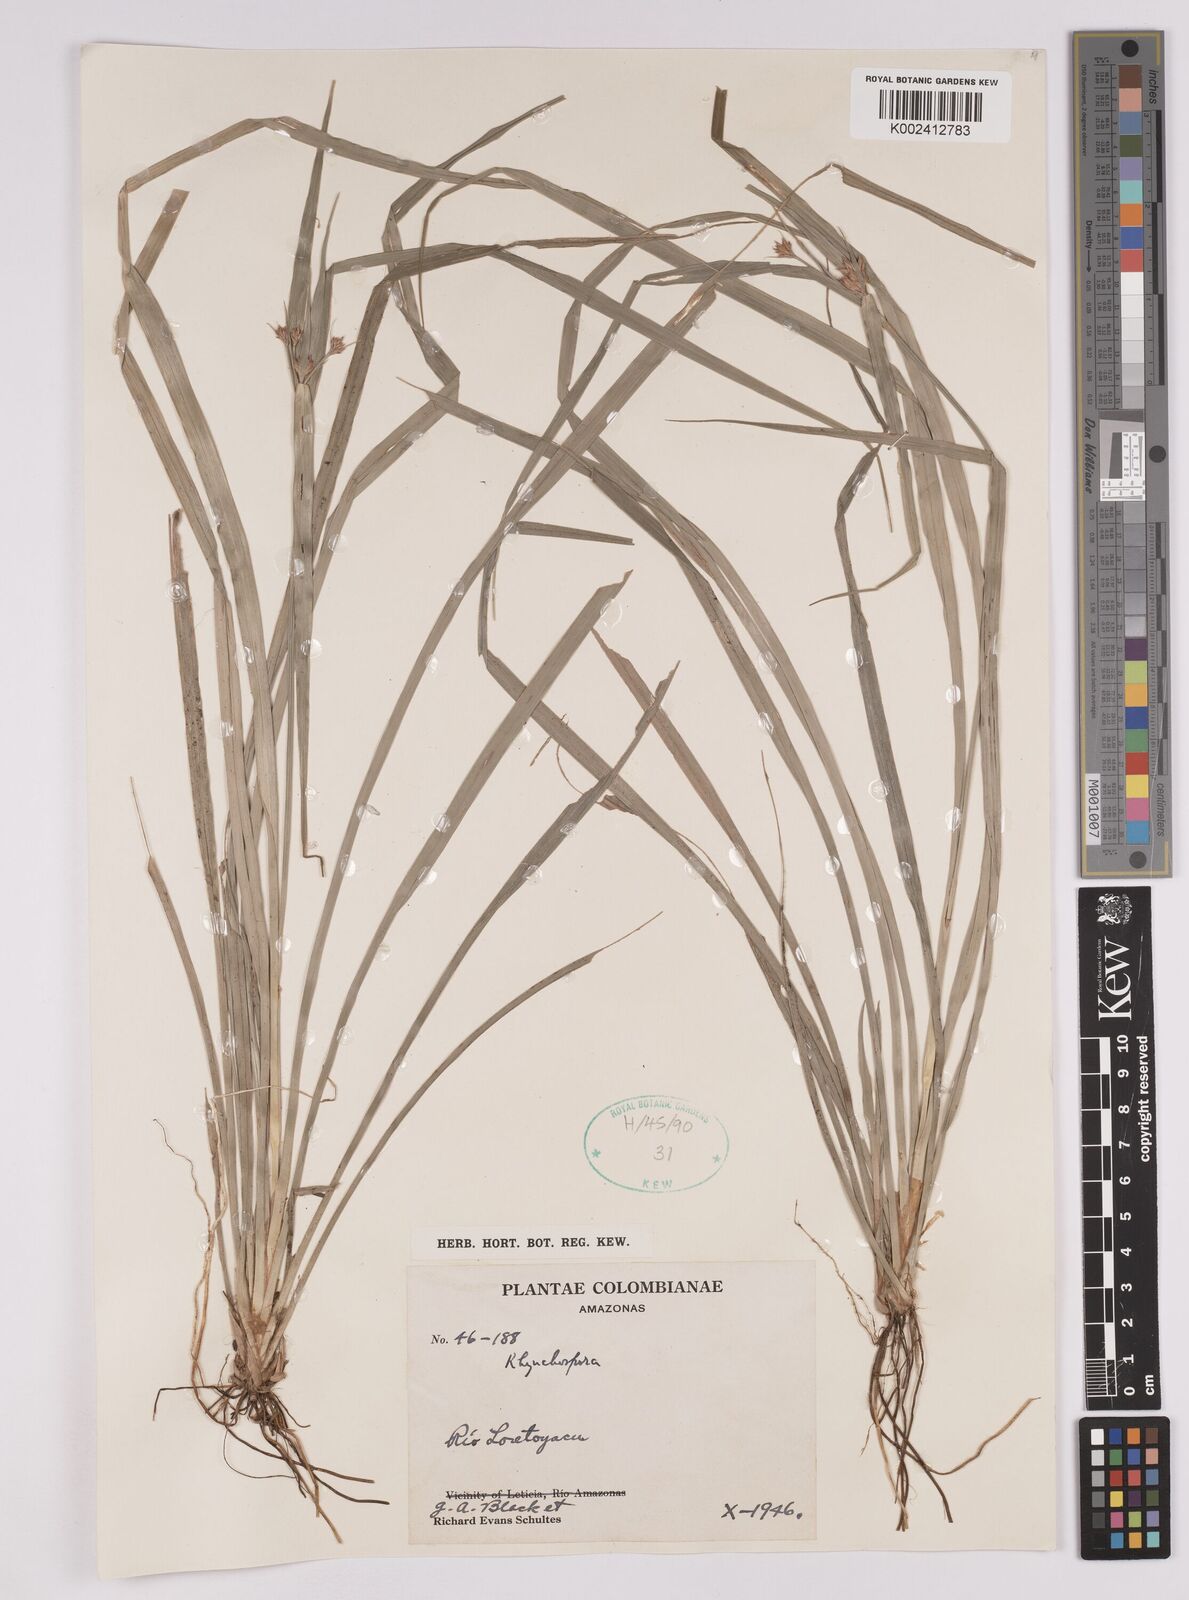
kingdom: Plantae
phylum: Tracheophyta
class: Liliopsida
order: Poales
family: Cyperaceae
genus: Rhynchospora
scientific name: Rhynchospora
